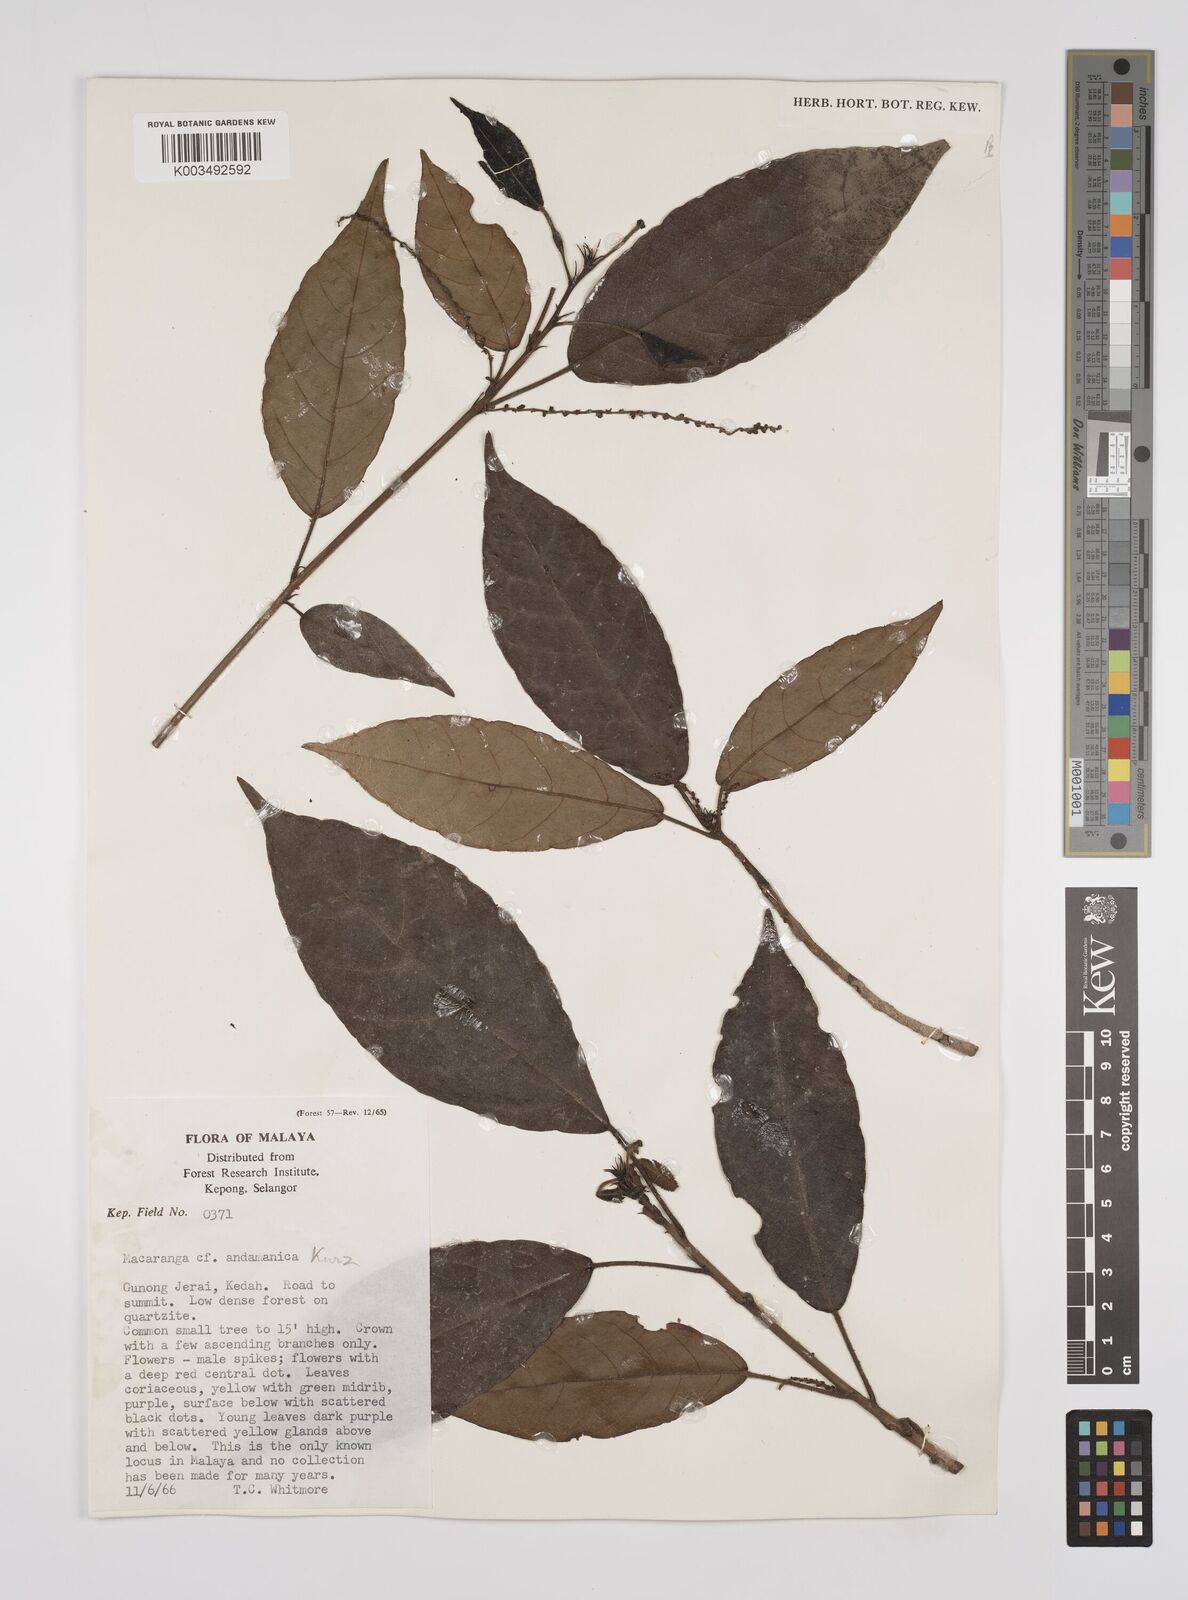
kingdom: Plantae
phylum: Tracheophyta
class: Magnoliopsida
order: Malpighiales
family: Euphorbiaceae
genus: Macaranga
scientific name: Macaranga andamanica
